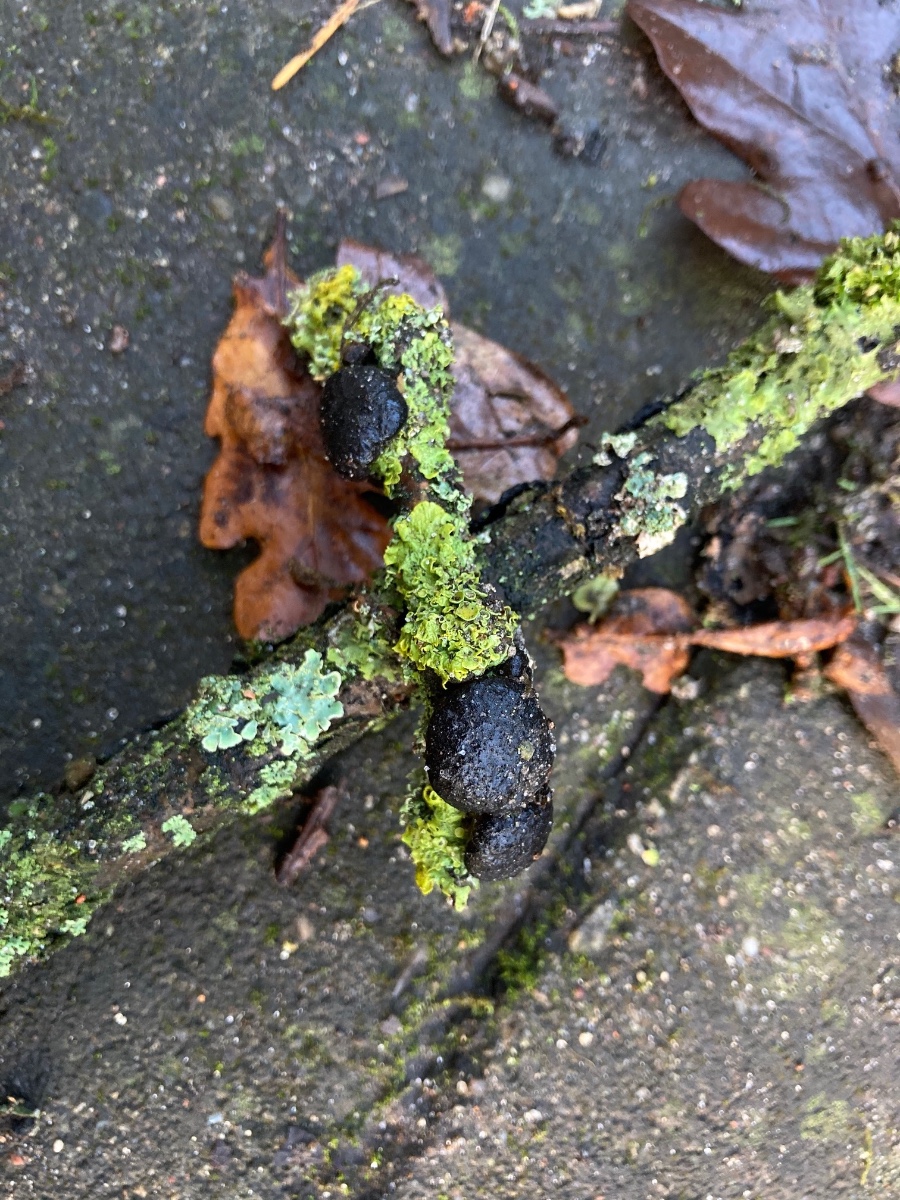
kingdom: Fungi
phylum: Basidiomycota
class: Agaricomycetes
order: Auriculariales
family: Auriculariaceae
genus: Exidia
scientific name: Exidia glandulosa
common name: ege-bævretop
